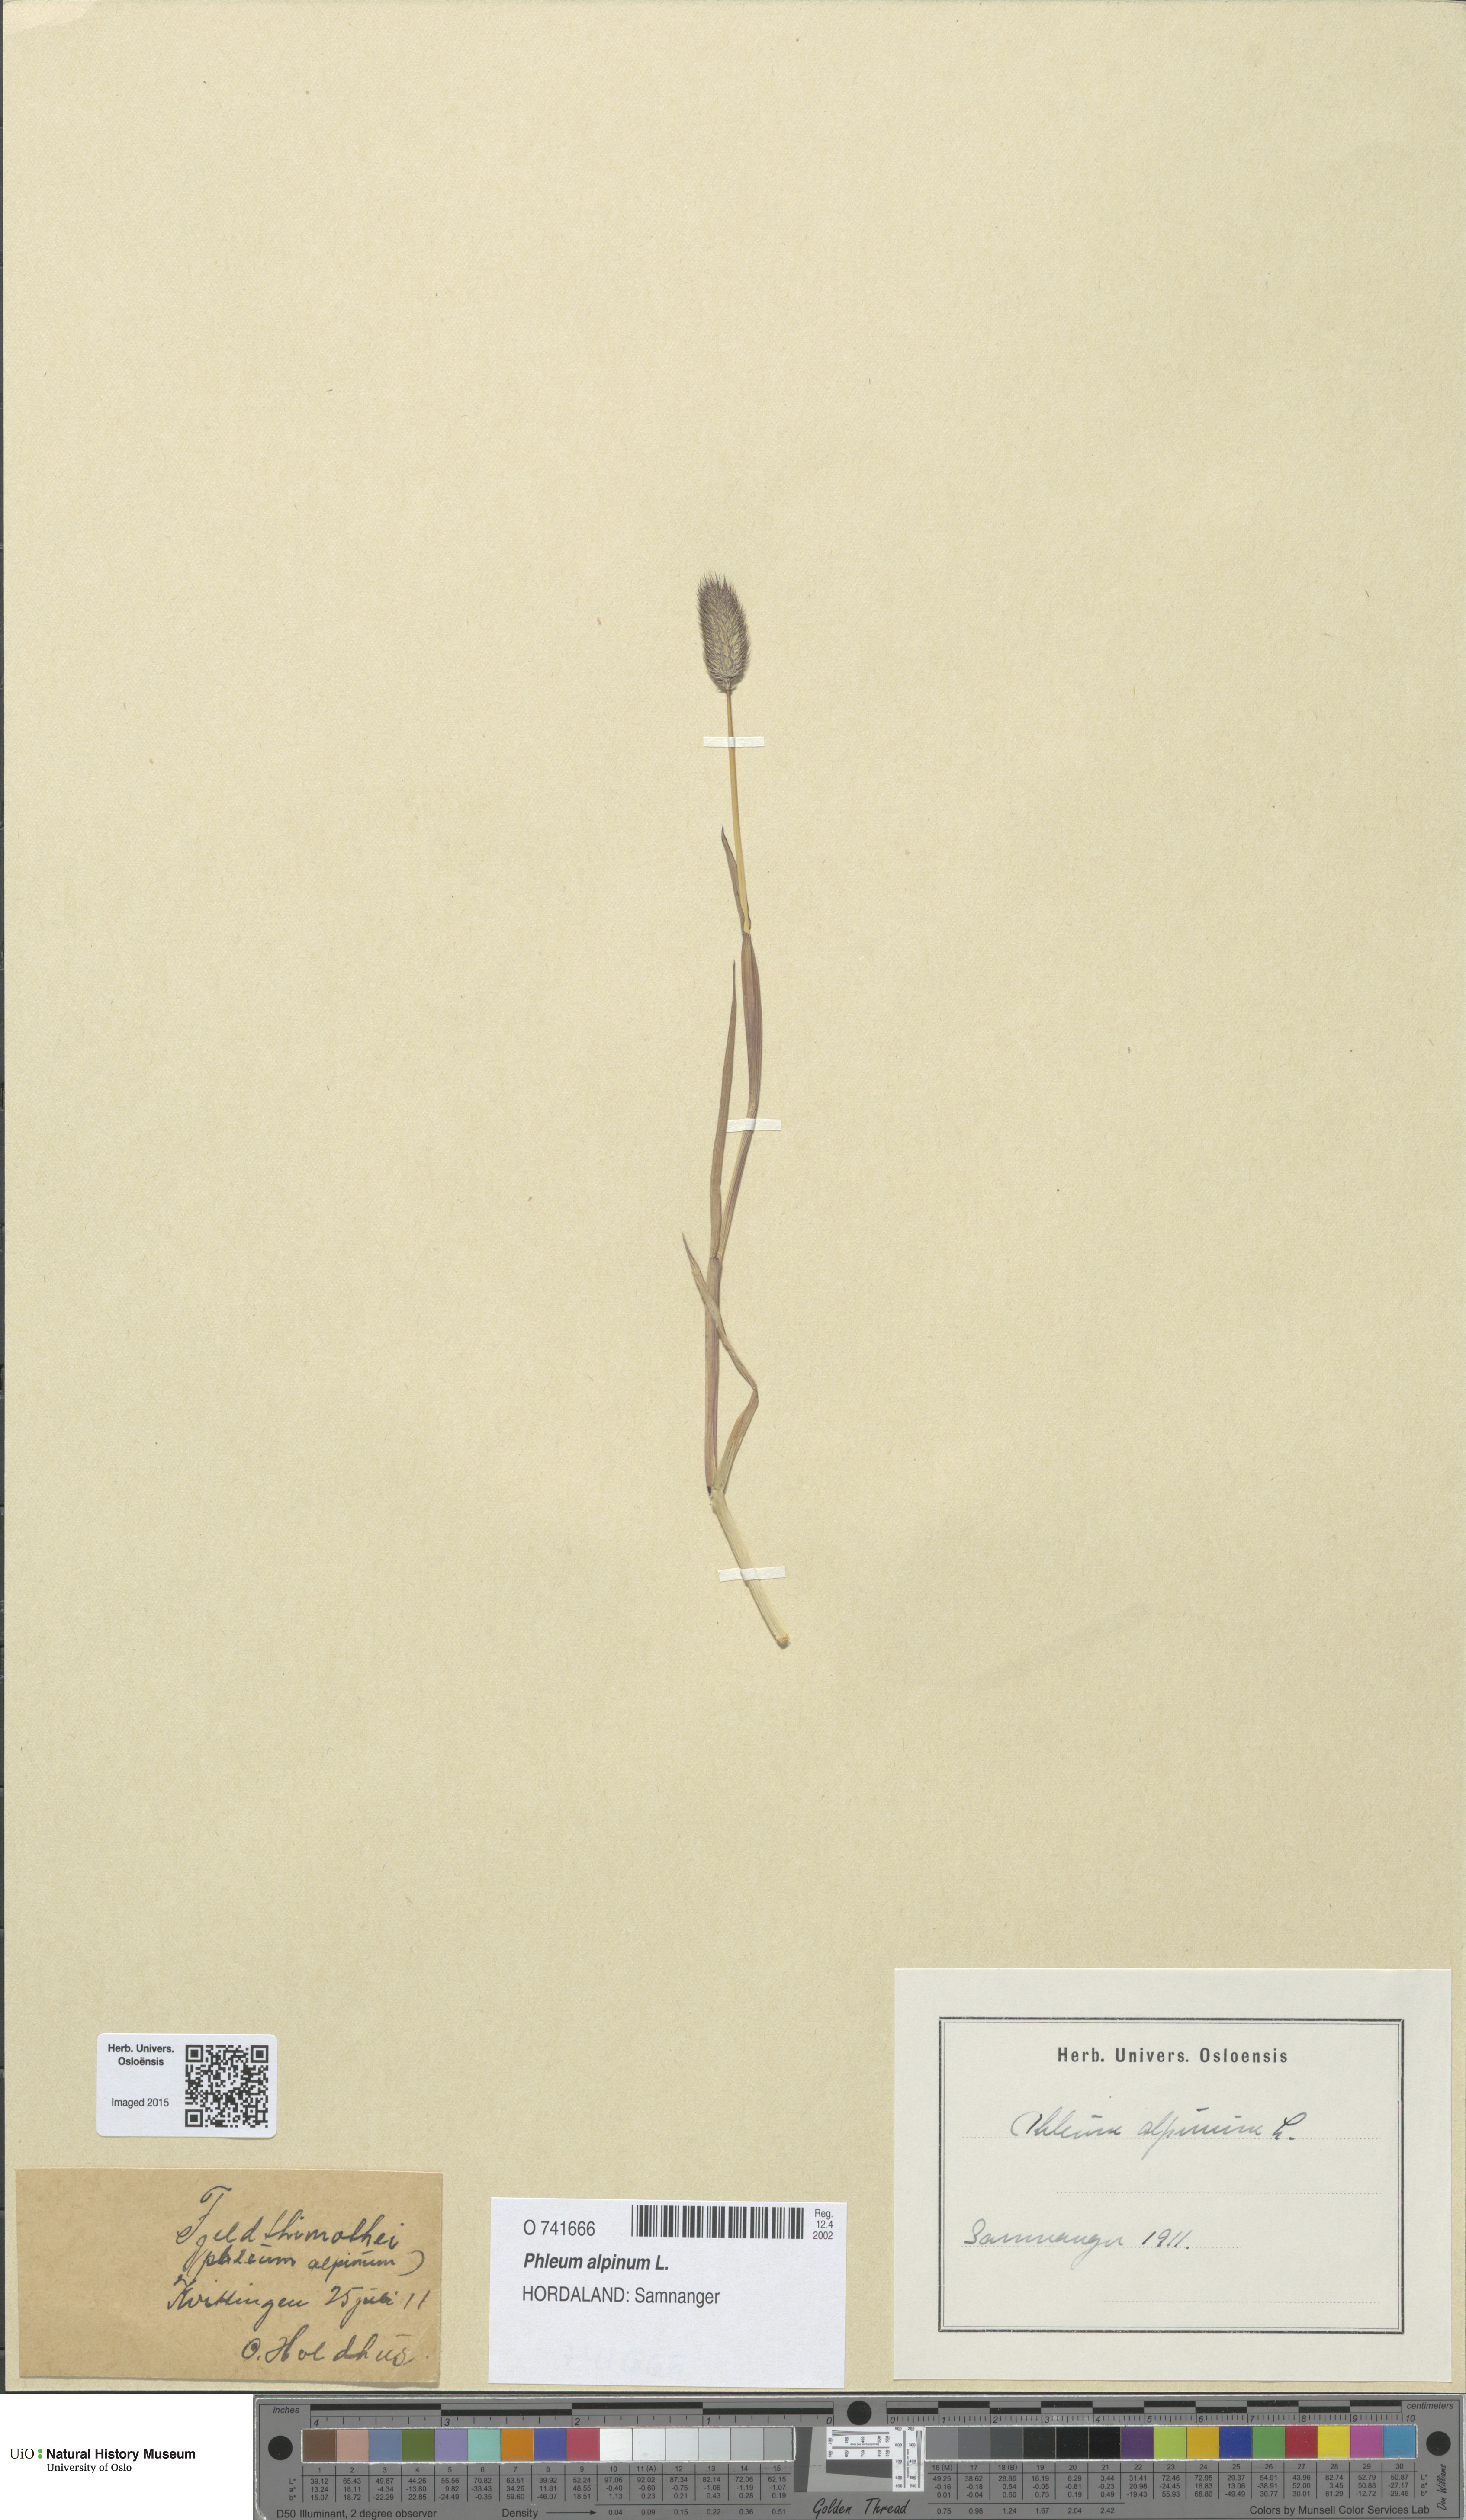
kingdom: Plantae
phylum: Tracheophyta
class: Liliopsida
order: Poales
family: Poaceae
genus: Phleum
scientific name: Phleum alpinum
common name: Alpine cat's-tail
